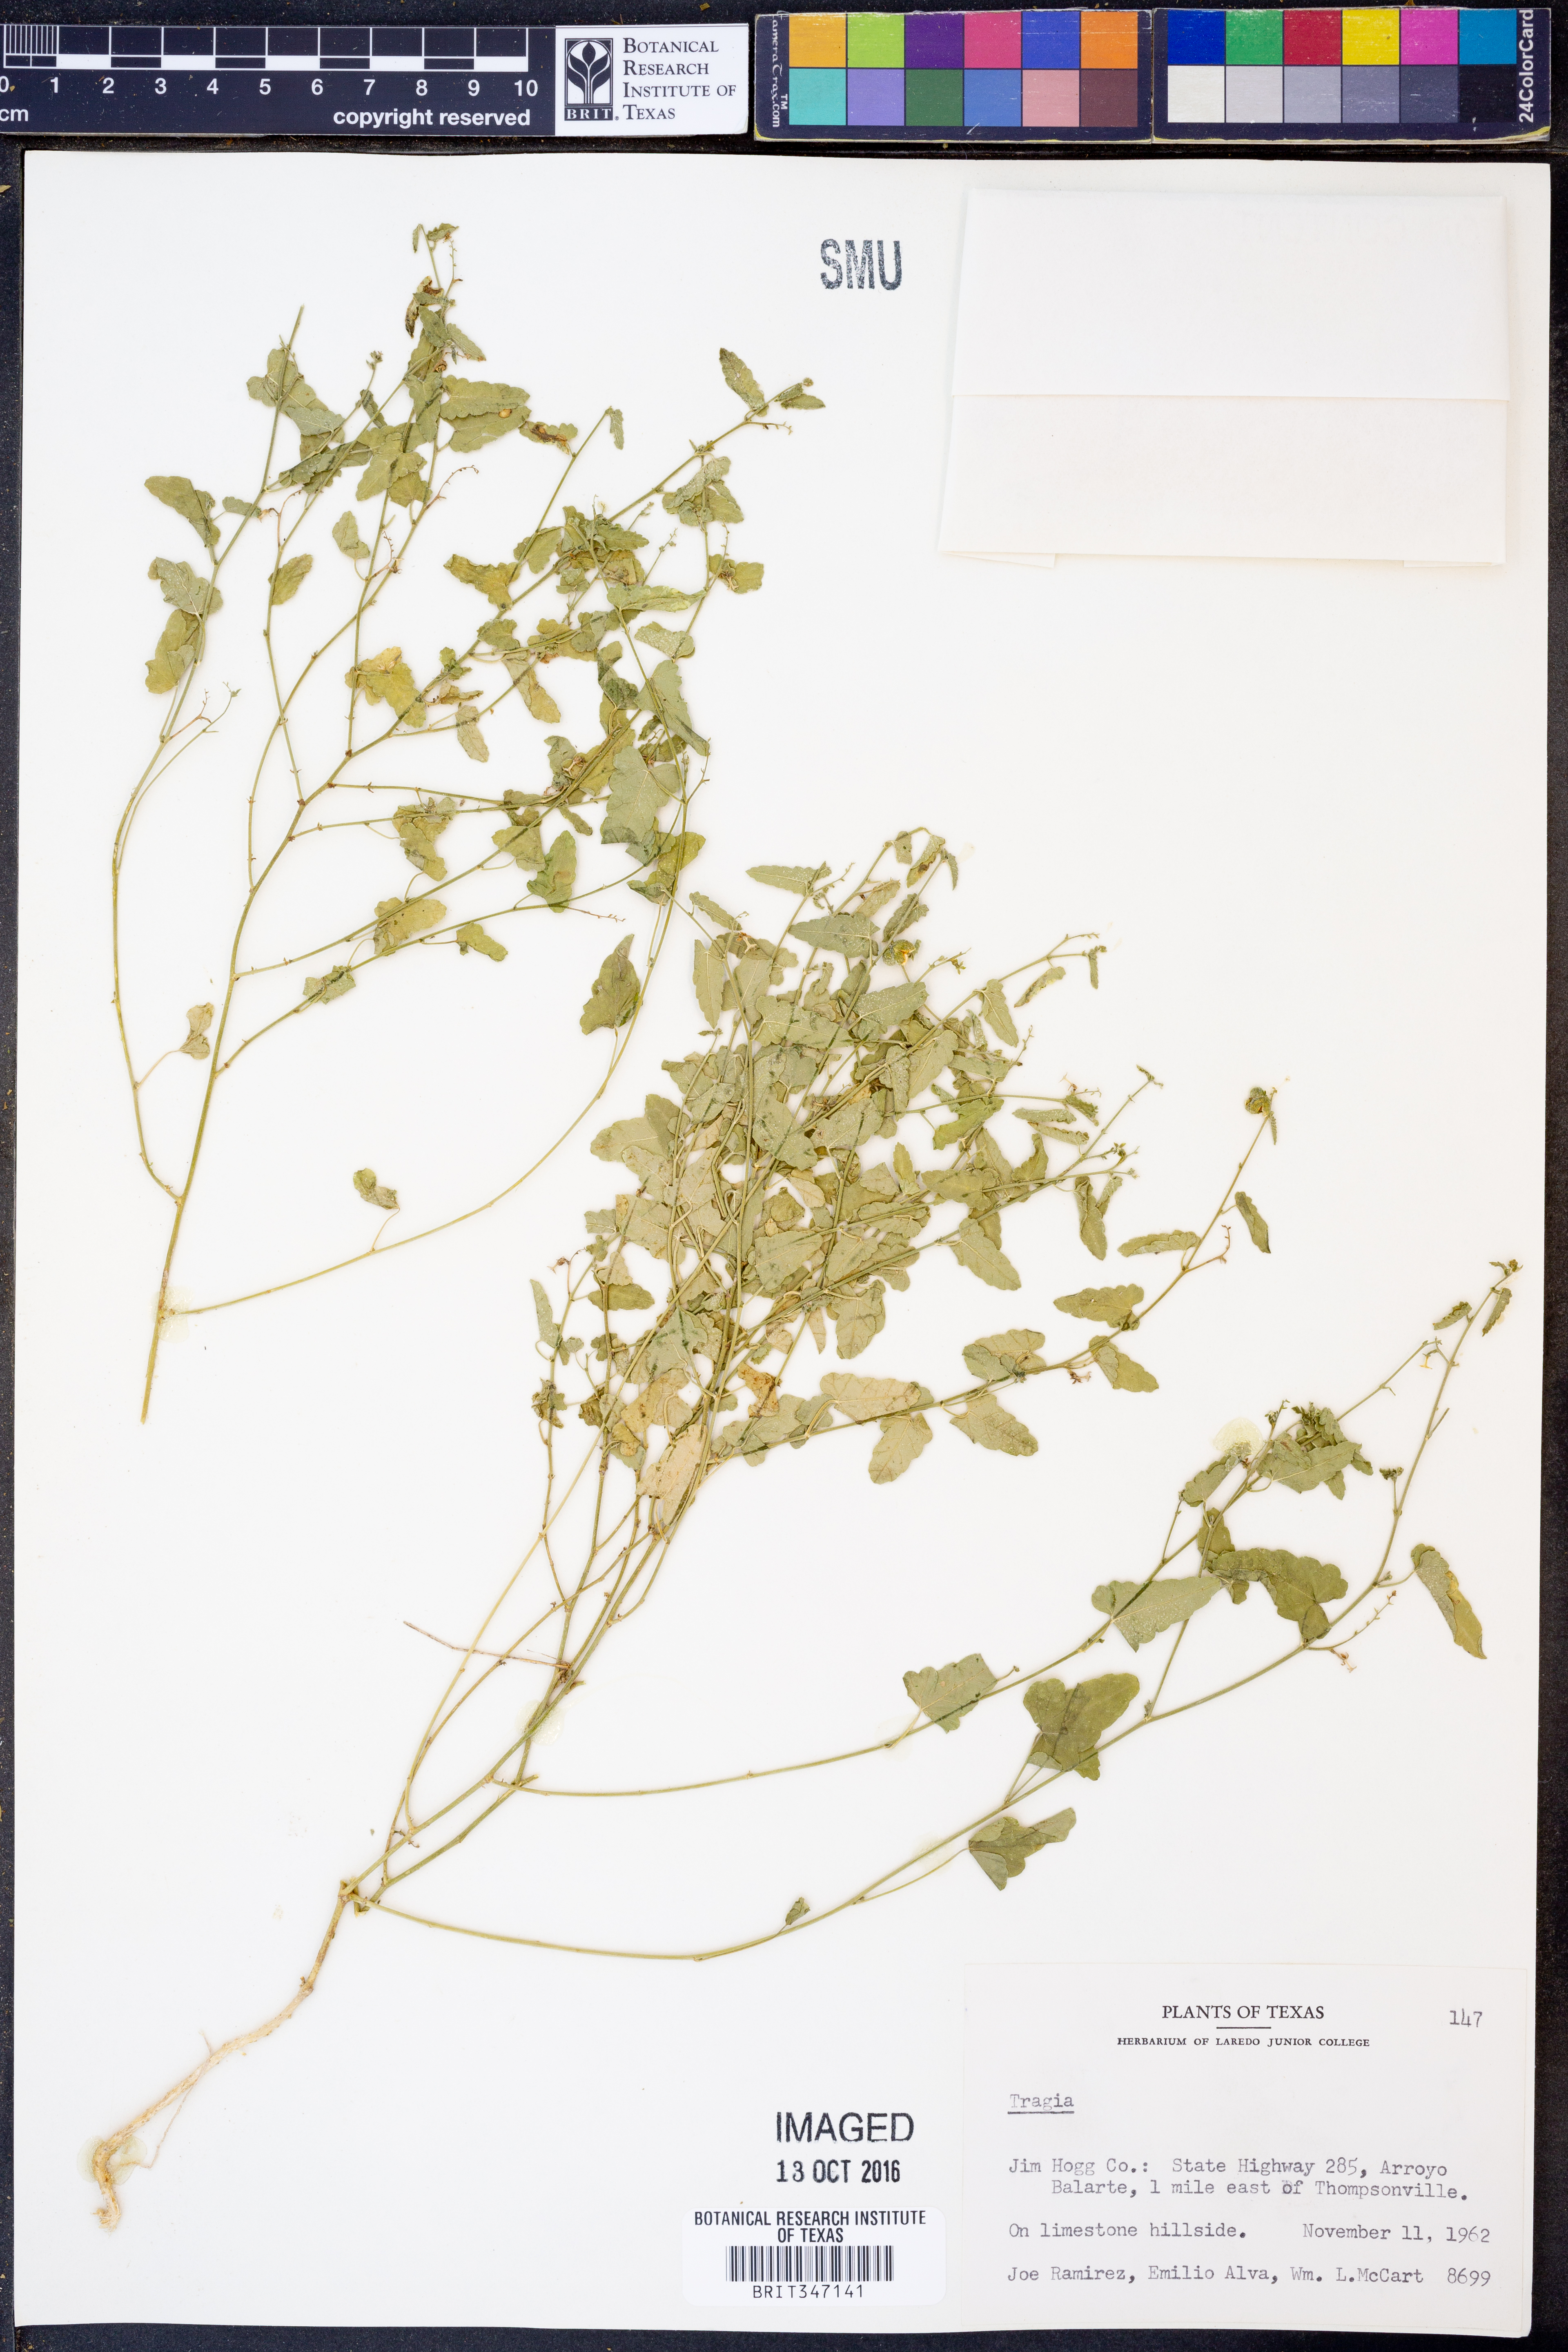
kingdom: Plantae
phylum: Tracheophyta
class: Magnoliopsida
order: Malpighiales
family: Euphorbiaceae
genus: Tragia
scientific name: Tragia
